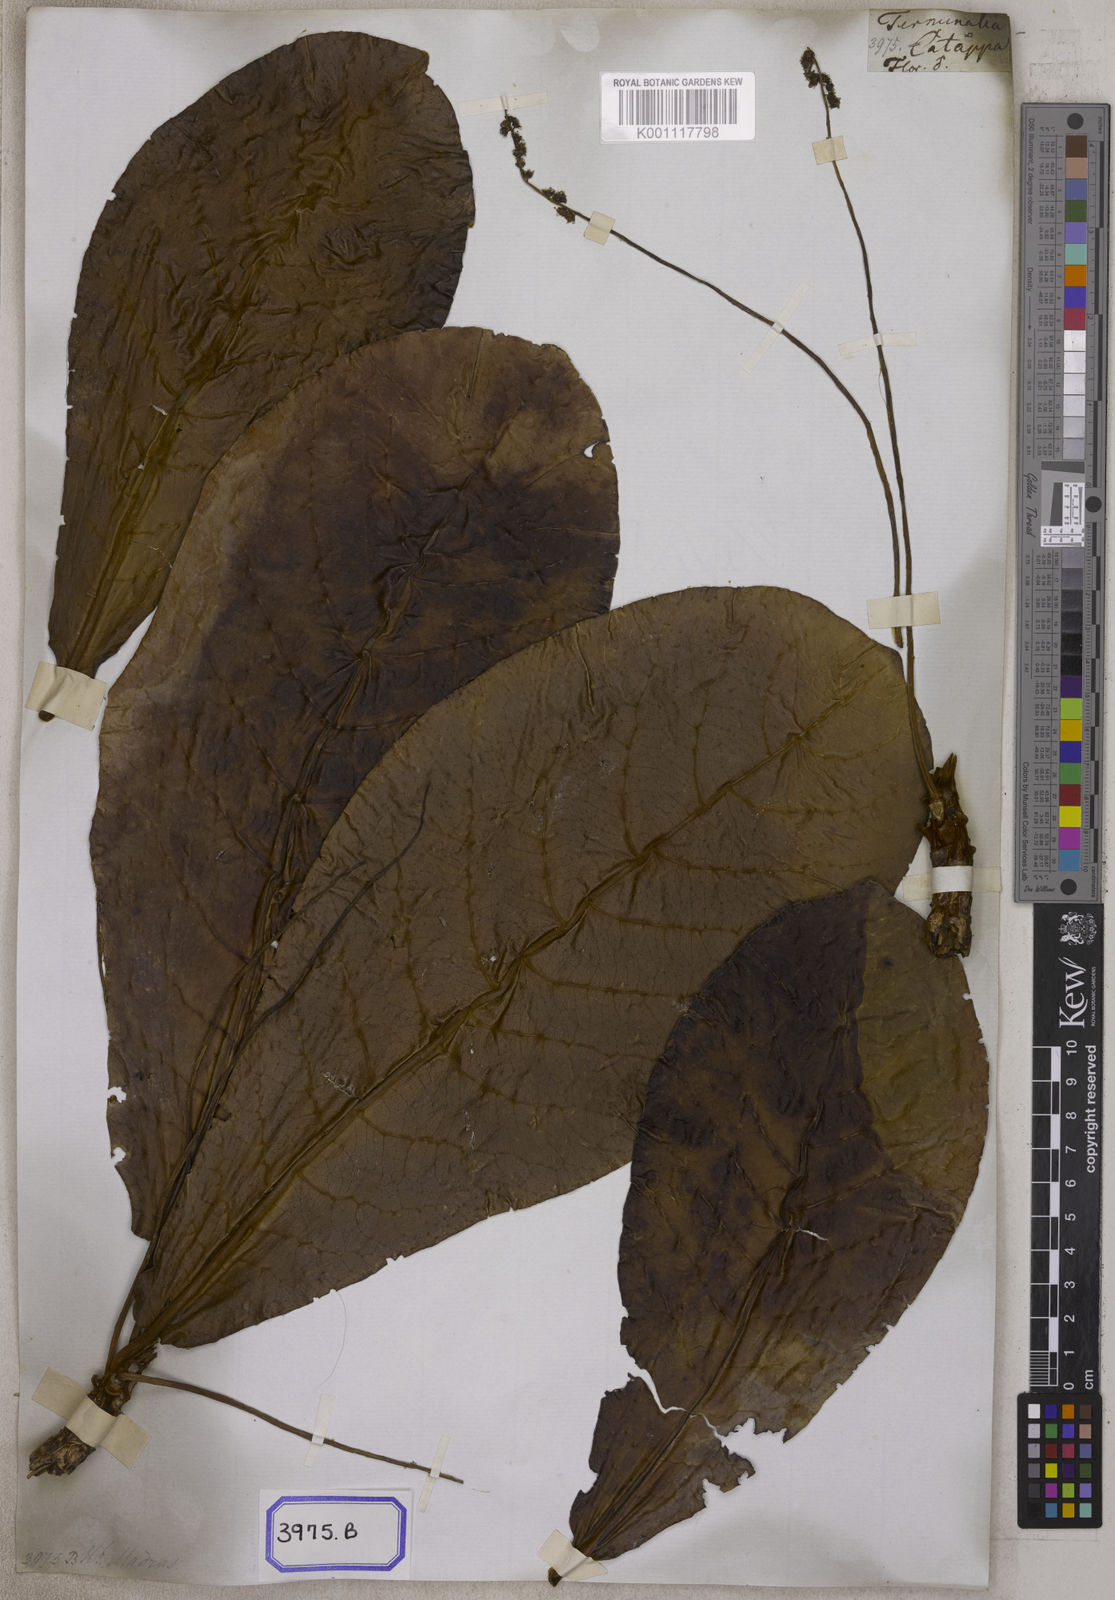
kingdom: Plantae
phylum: Tracheophyta
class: Magnoliopsida
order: Myrtales
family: Combretaceae
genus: Terminalia
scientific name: Terminalia catappa
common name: Tropical almond
